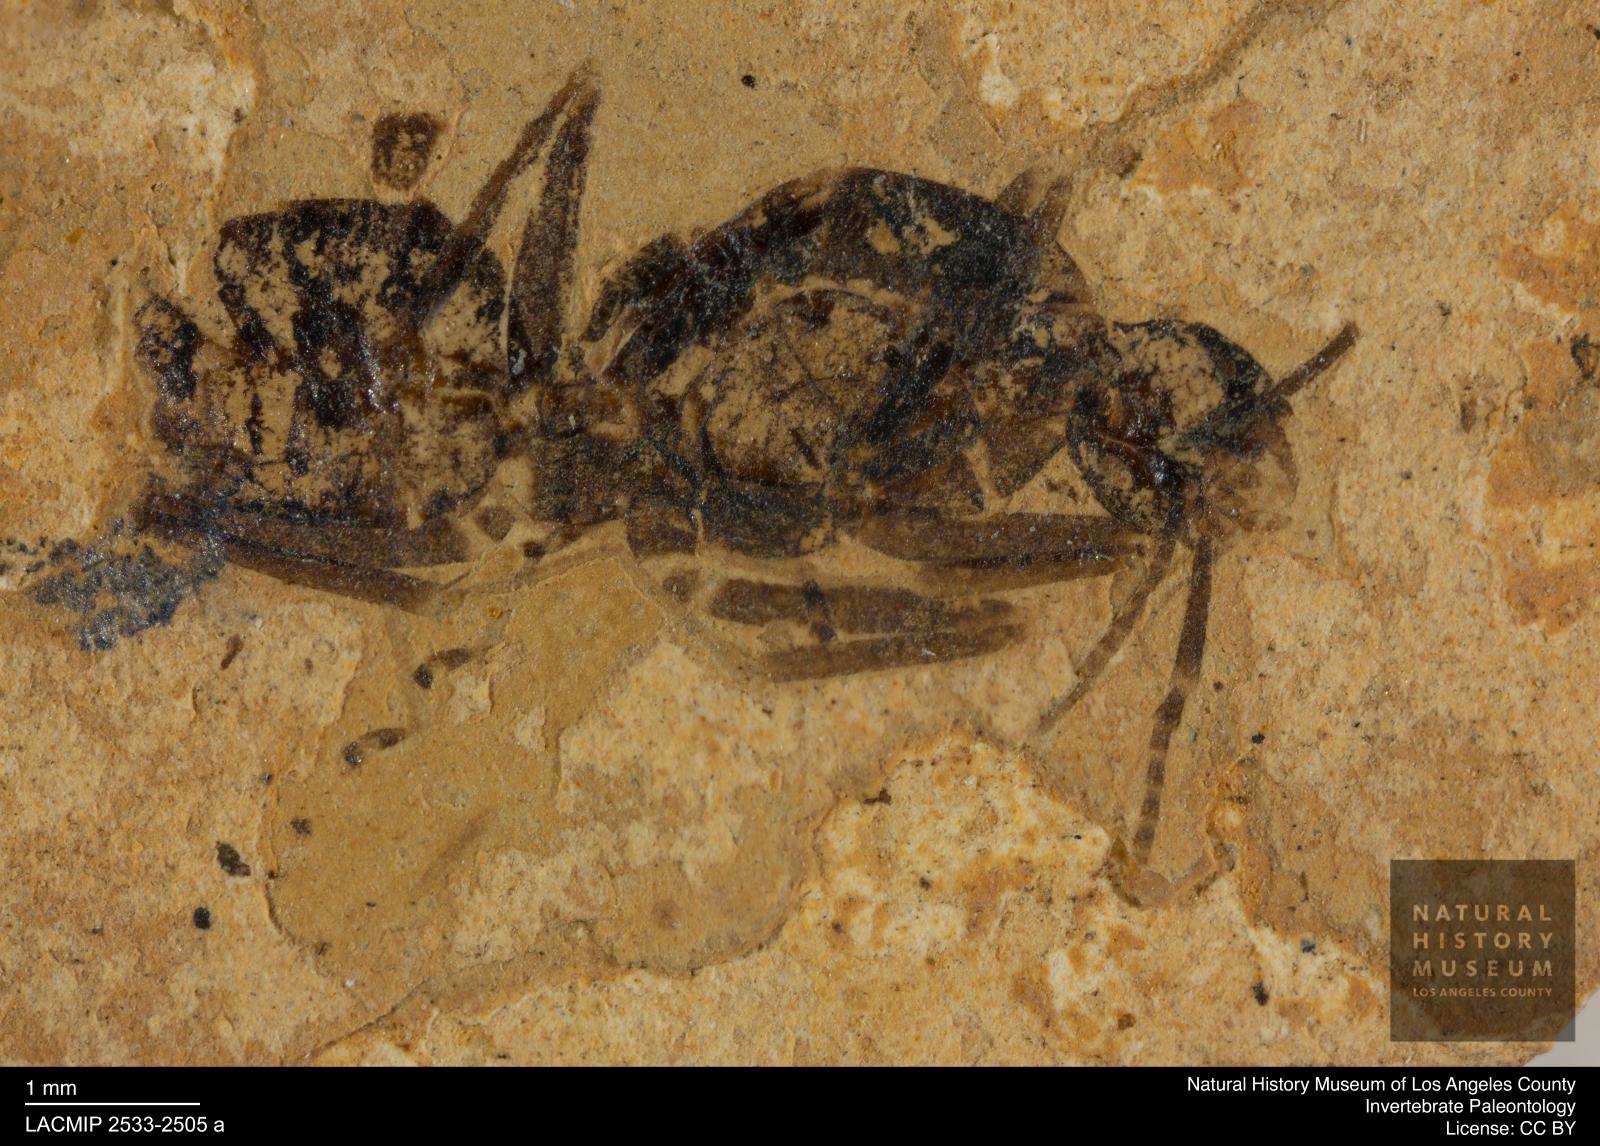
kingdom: Animalia
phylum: Arthropoda
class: Insecta
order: Hymenoptera
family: Formicidae
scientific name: Formicidae
